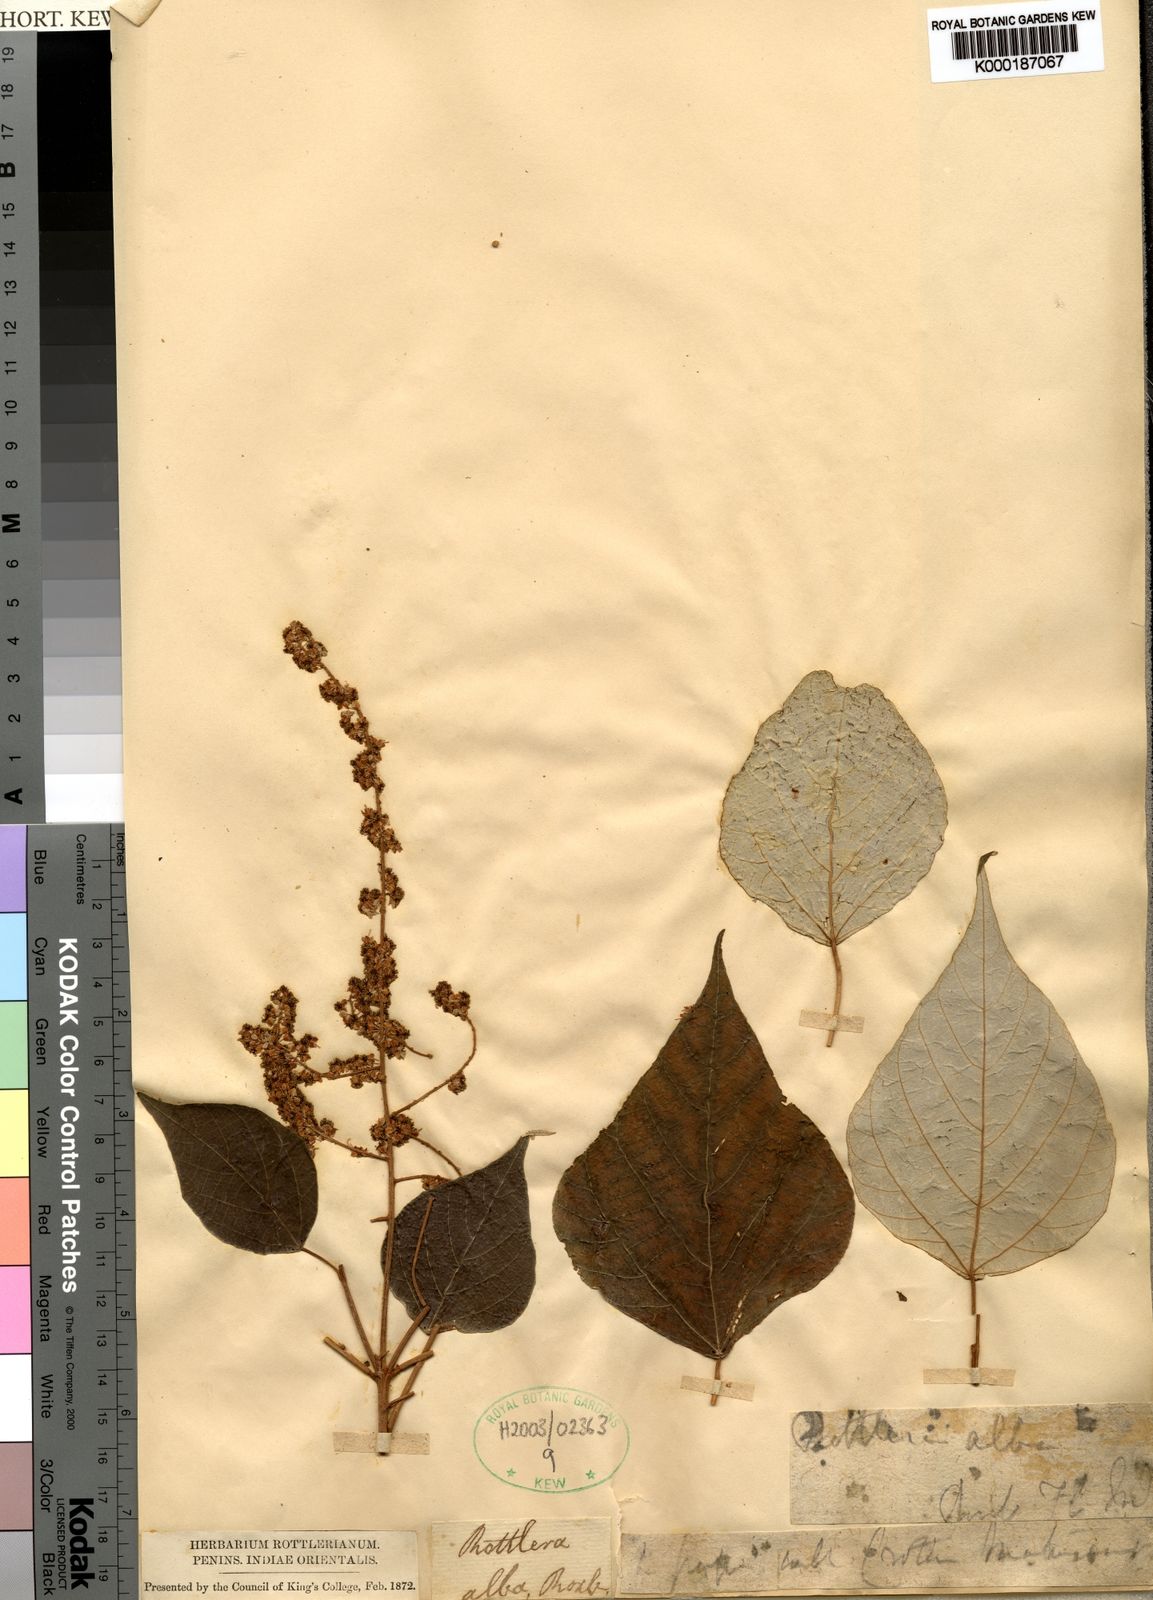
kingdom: Plantae
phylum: Tracheophyta
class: Magnoliopsida
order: Malpighiales
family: Euphorbiaceae
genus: Euphorbia
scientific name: Euphorbia pedilanthoides
